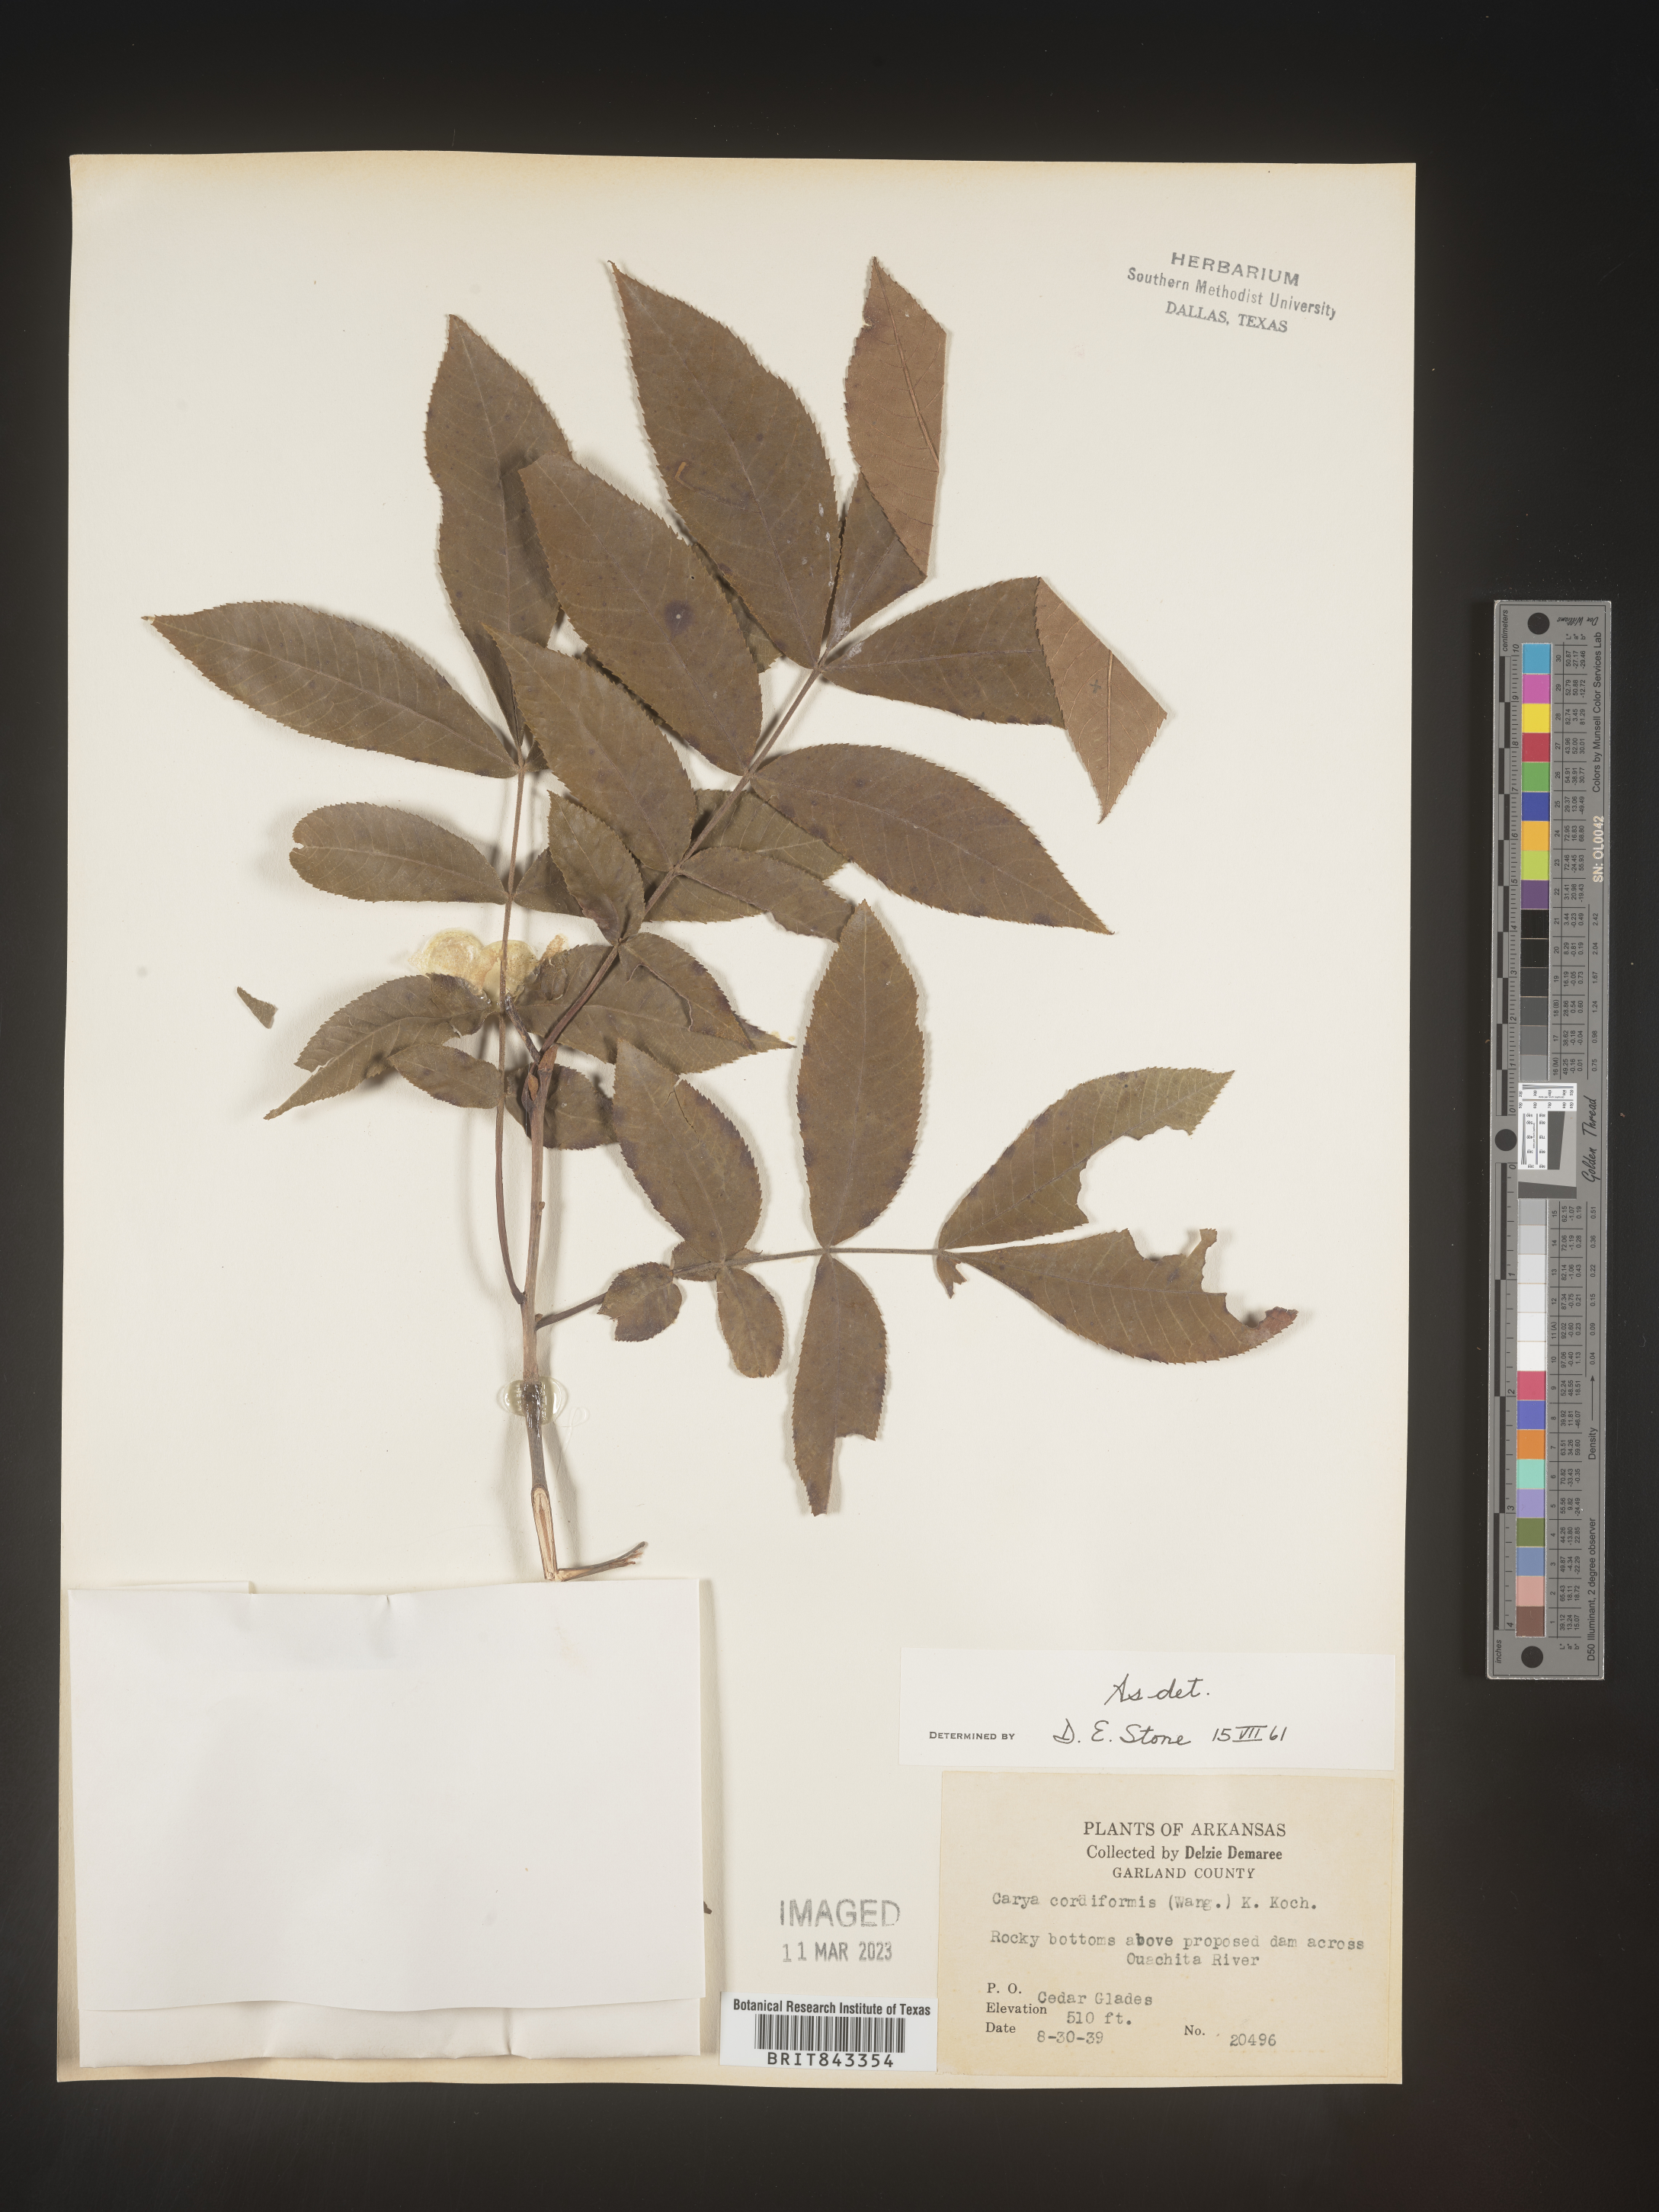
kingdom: Plantae
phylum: Tracheophyta
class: Magnoliopsida
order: Fagales
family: Juglandaceae
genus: Carya
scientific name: Carya cordiformis
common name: Bitternut hickory
